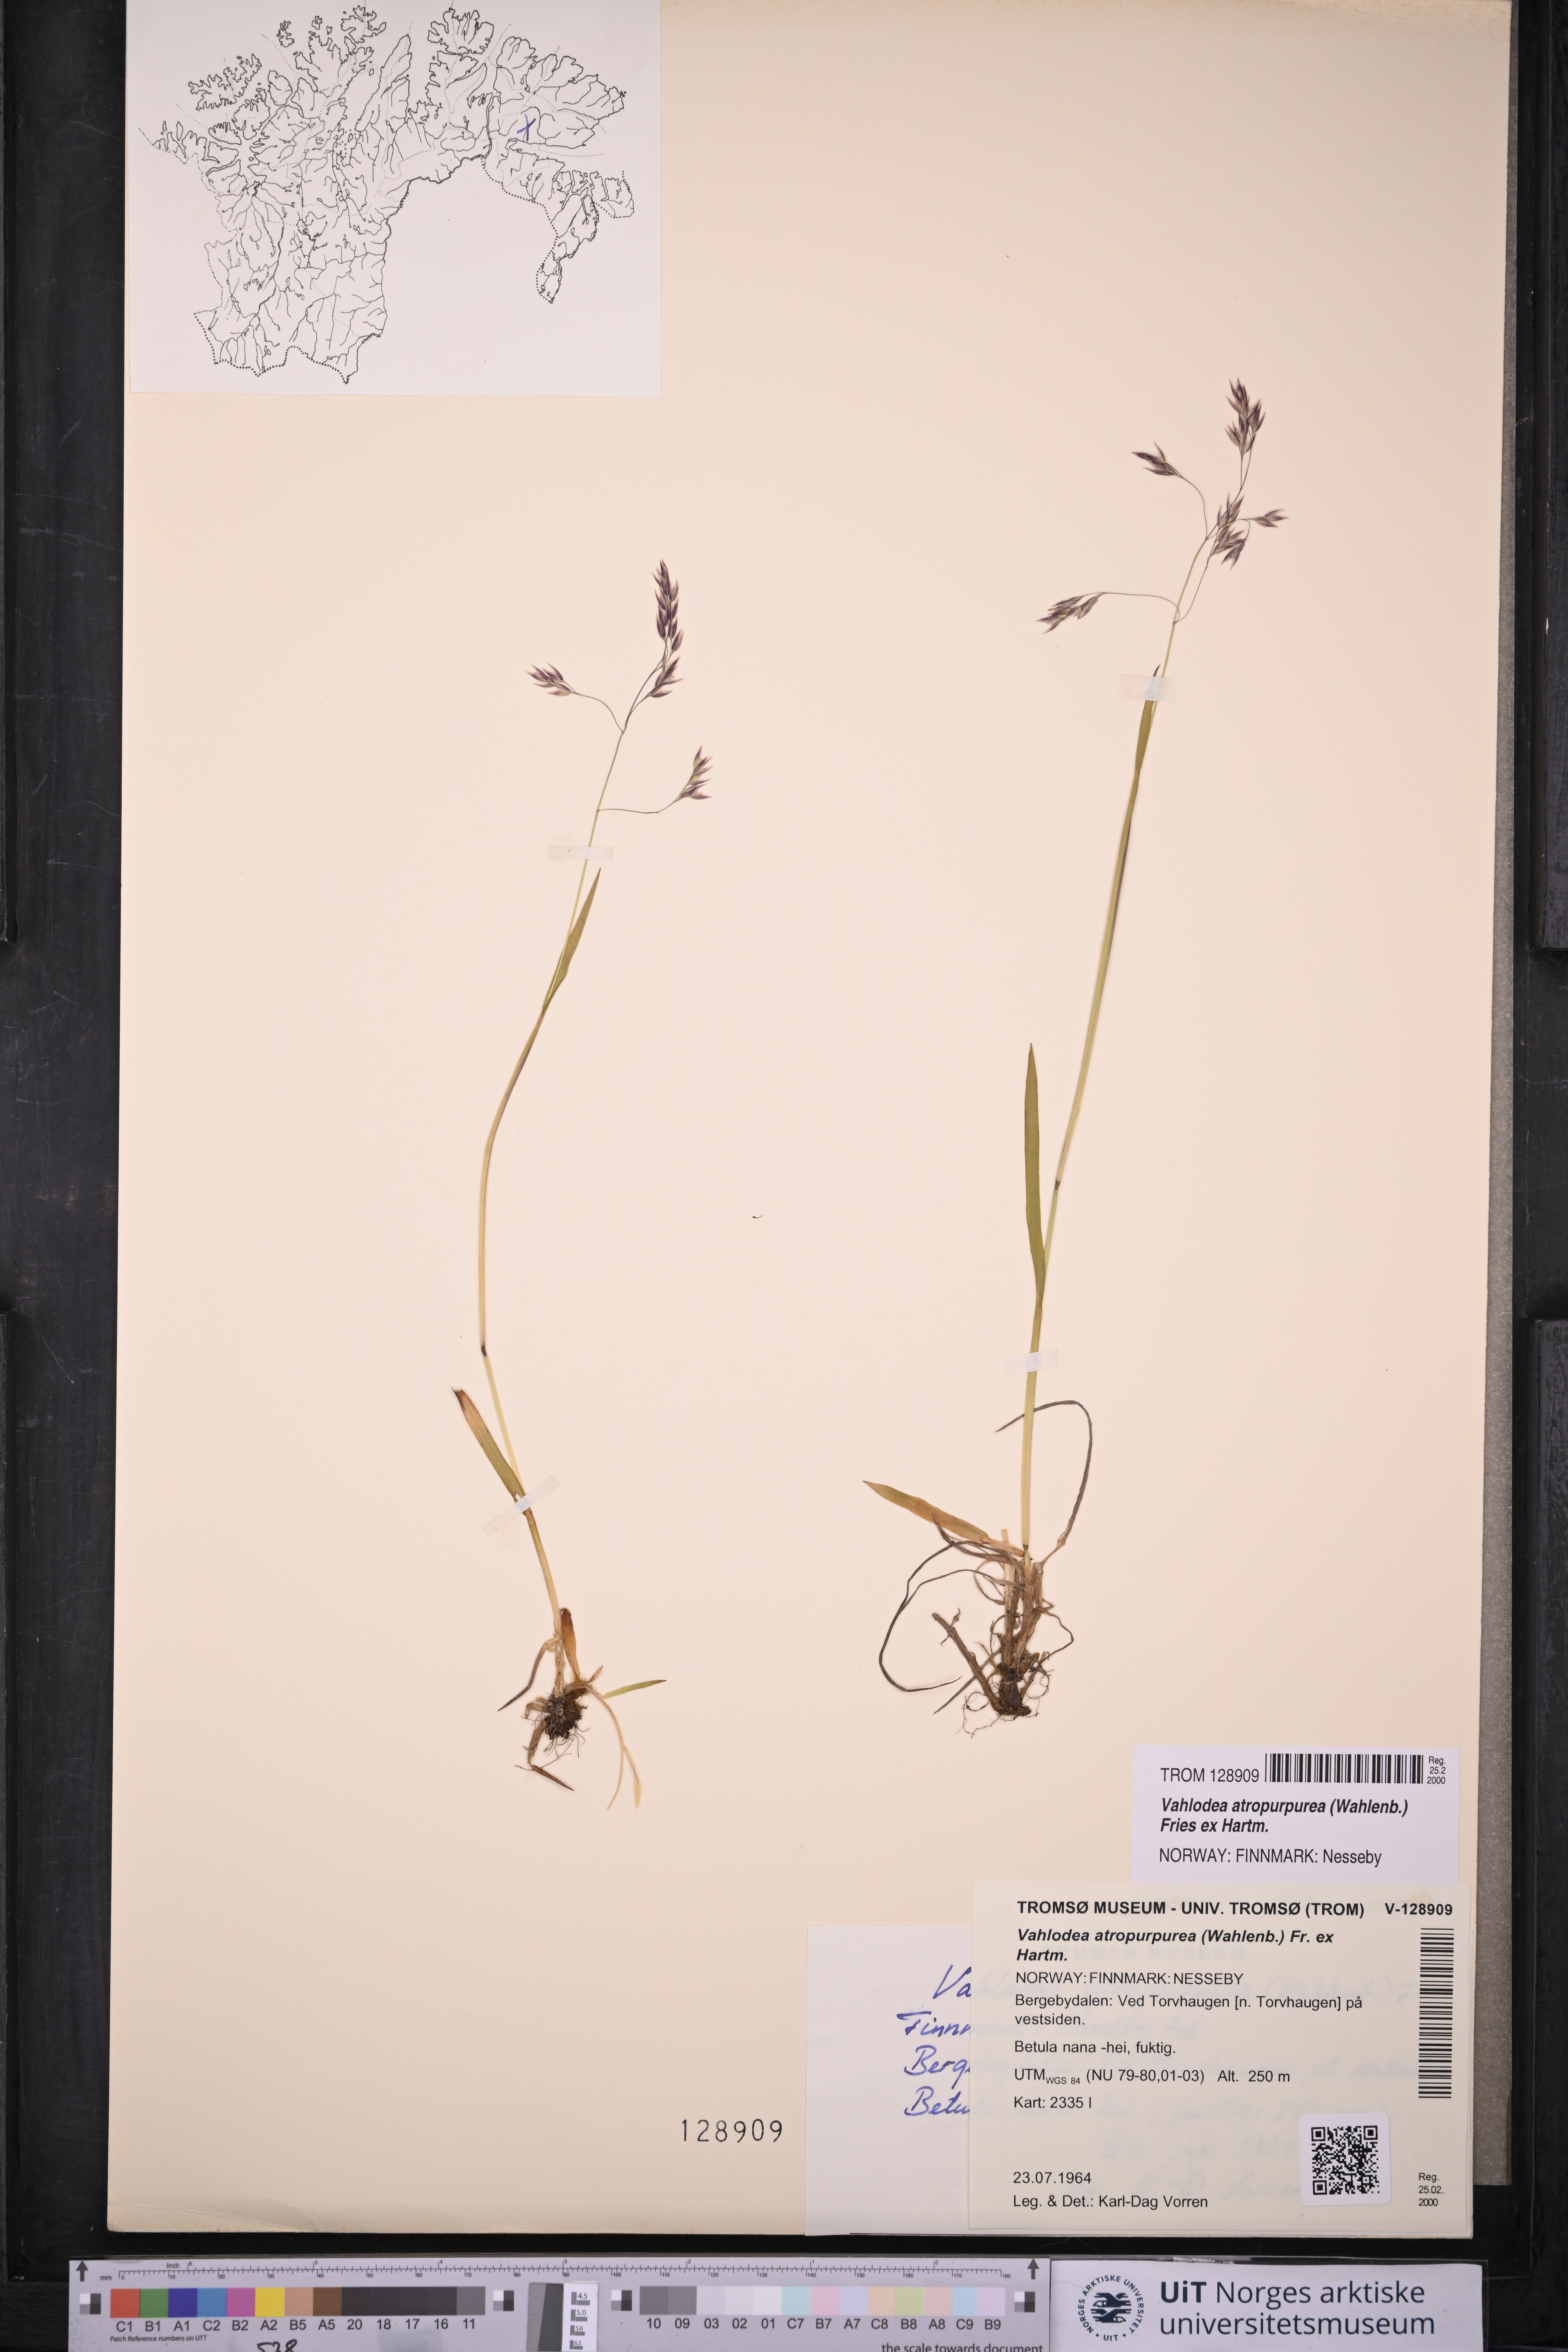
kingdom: Plantae
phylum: Tracheophyta
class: Liliopsida
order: Poales
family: Poaceae
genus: Vahlodea
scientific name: Vahlodea atropurpurea
